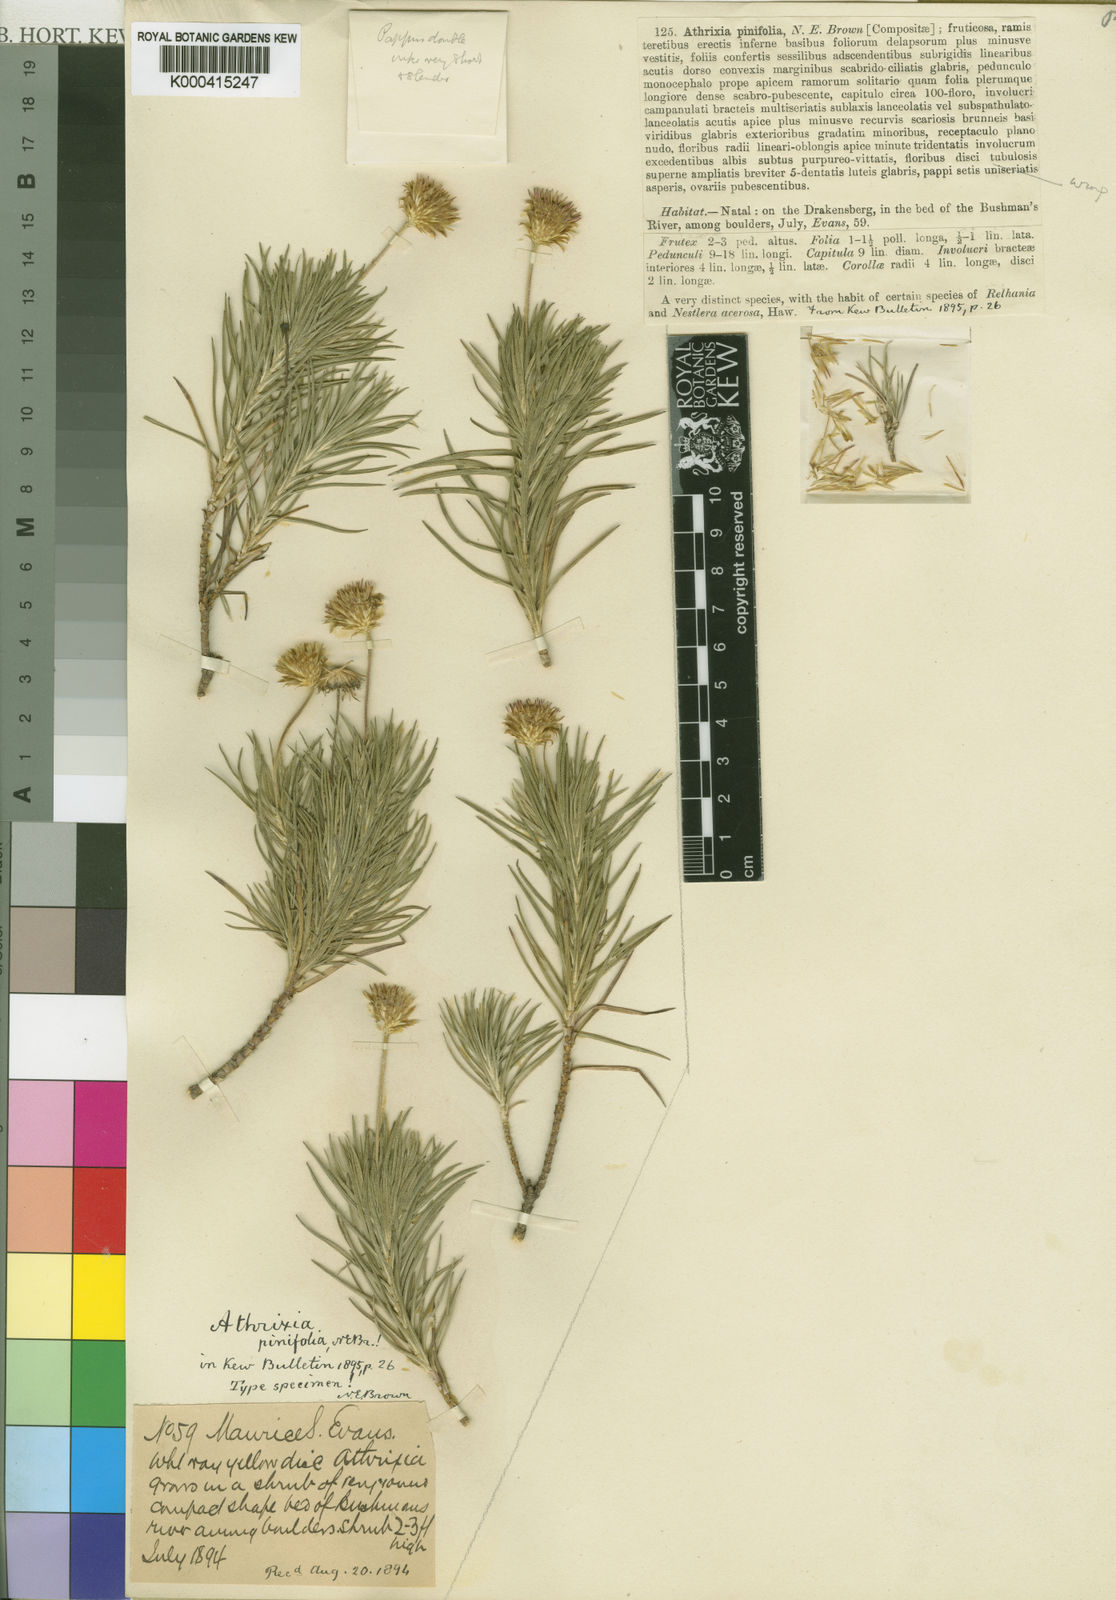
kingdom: Plantae
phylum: Tracheophyta
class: Magnoliopsida
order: Asterales
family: Asteraceae
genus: Fluminaria
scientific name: Fluminaria pinifolia
